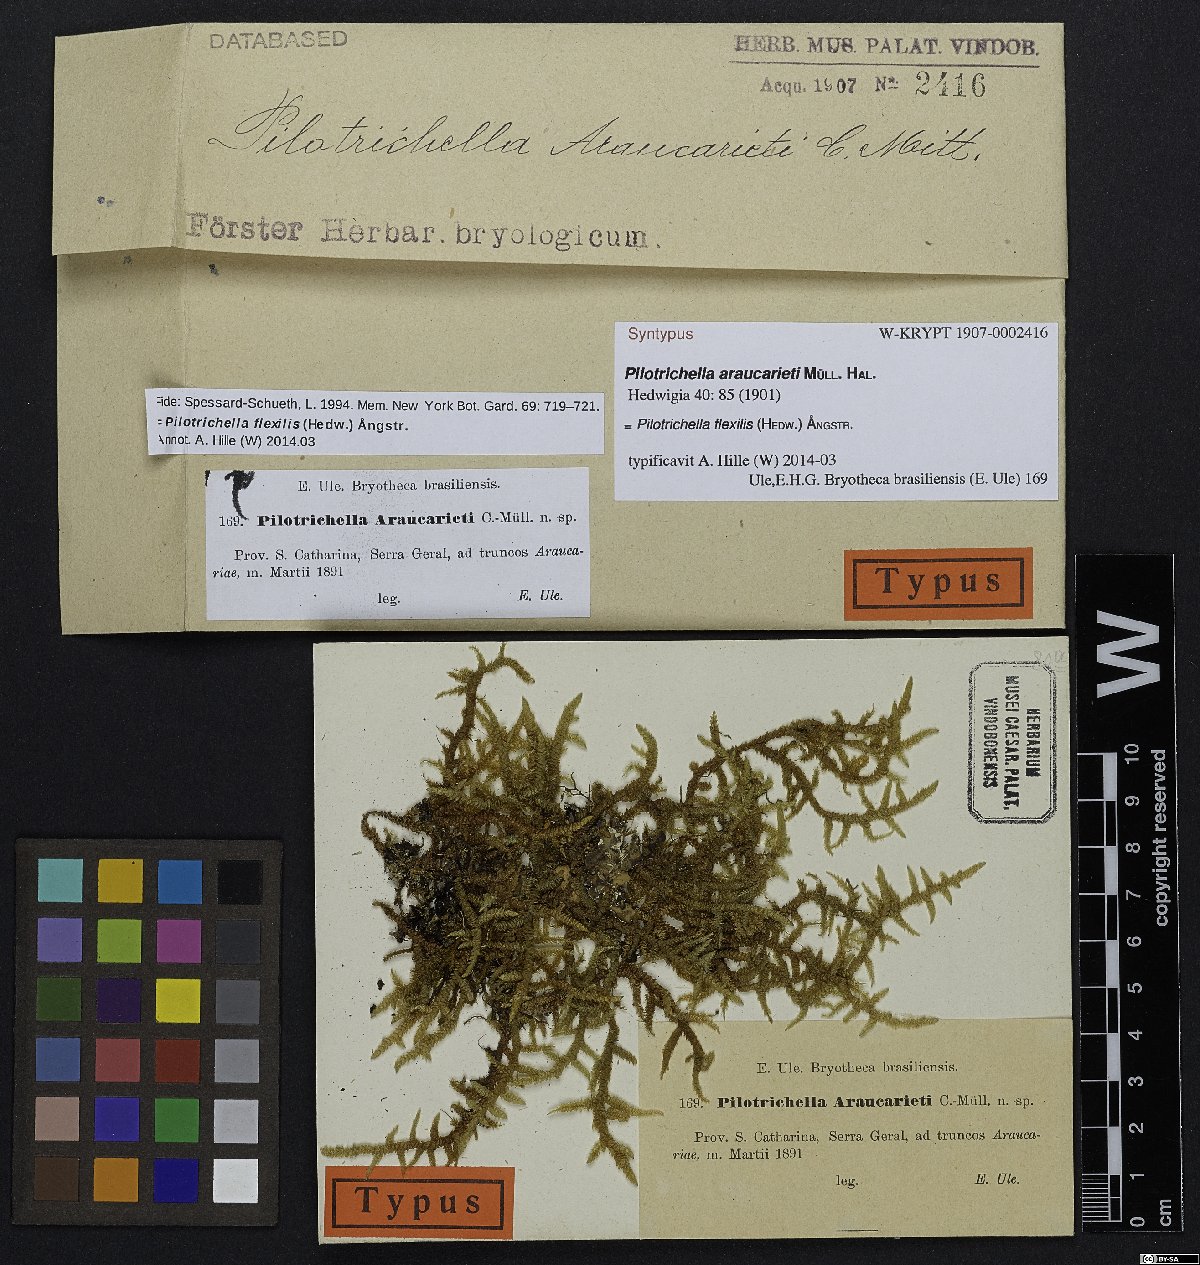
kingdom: Plantae
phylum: Bryophyta
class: Bryopsida
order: Hypnales
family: Lembophyllaceae
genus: Pilotrichella
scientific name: Pilotrichella flexilis
